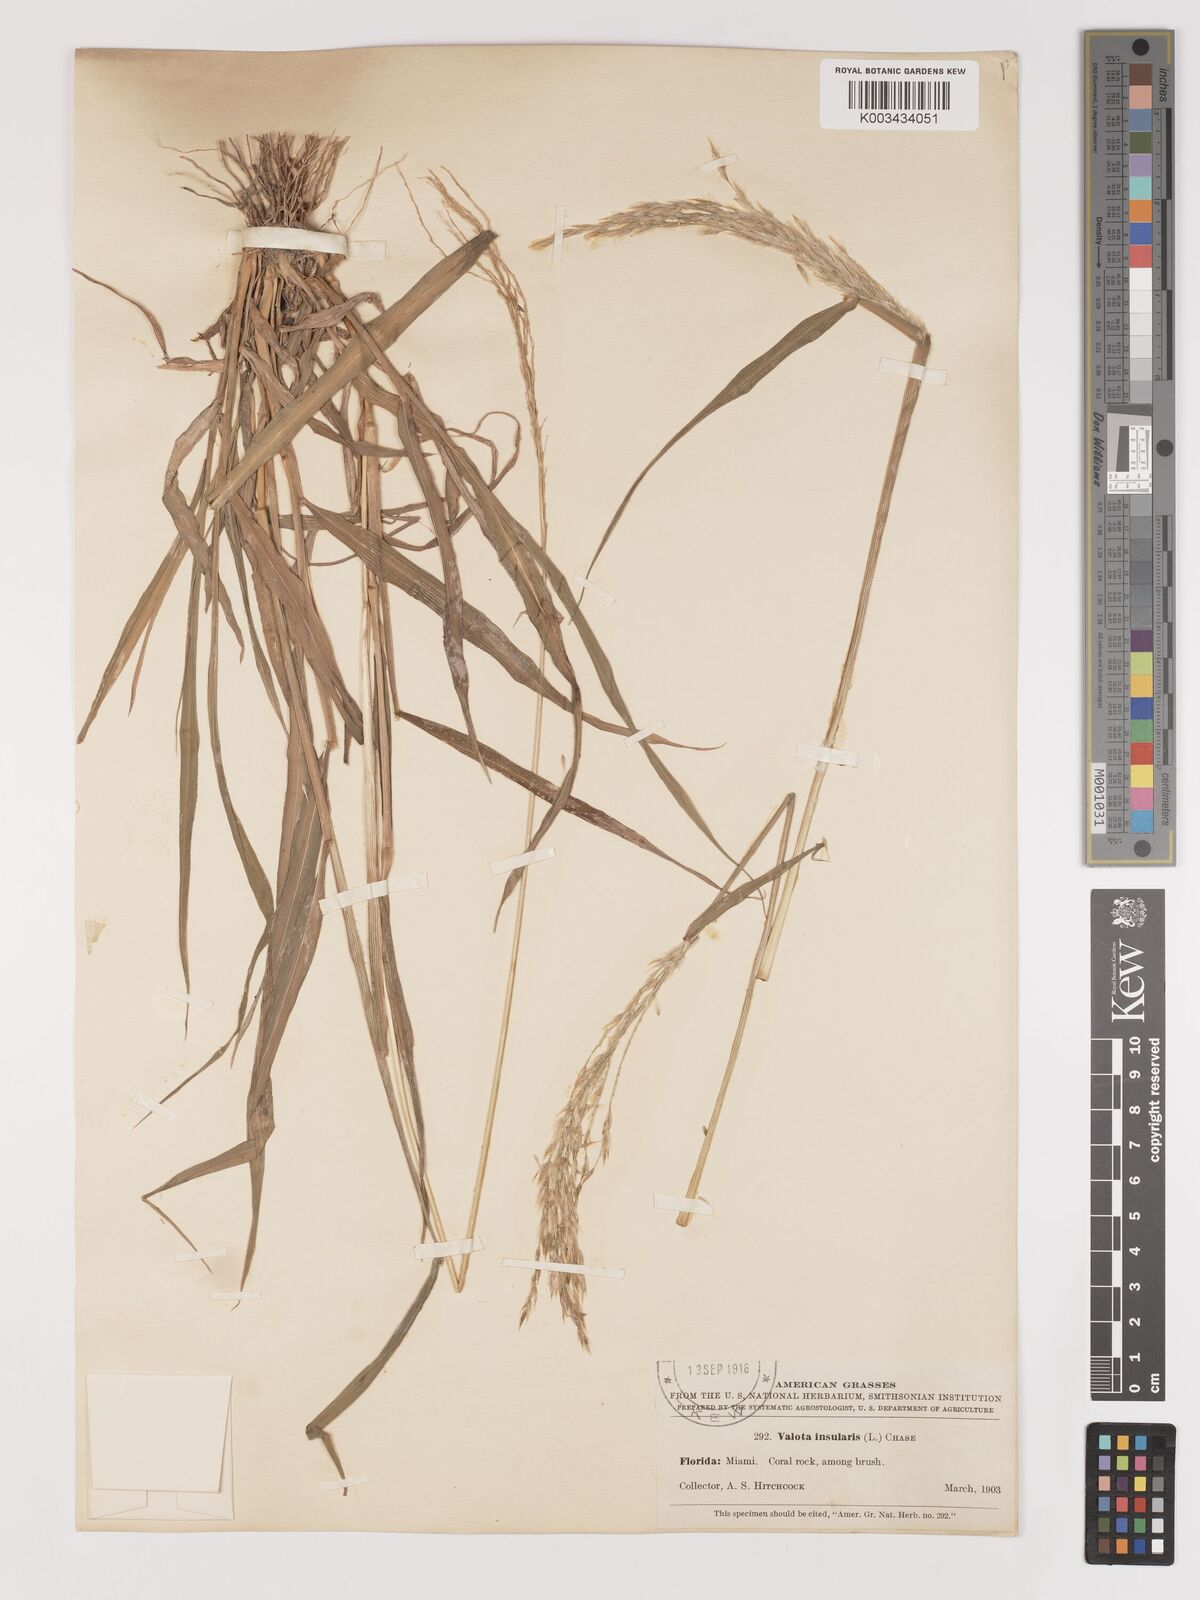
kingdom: Plantae
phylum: Tracheophyta
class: Liliopsida
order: Poales
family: Poaceae
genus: Digitaria
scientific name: Digitaria insularis
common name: Sourgrass
